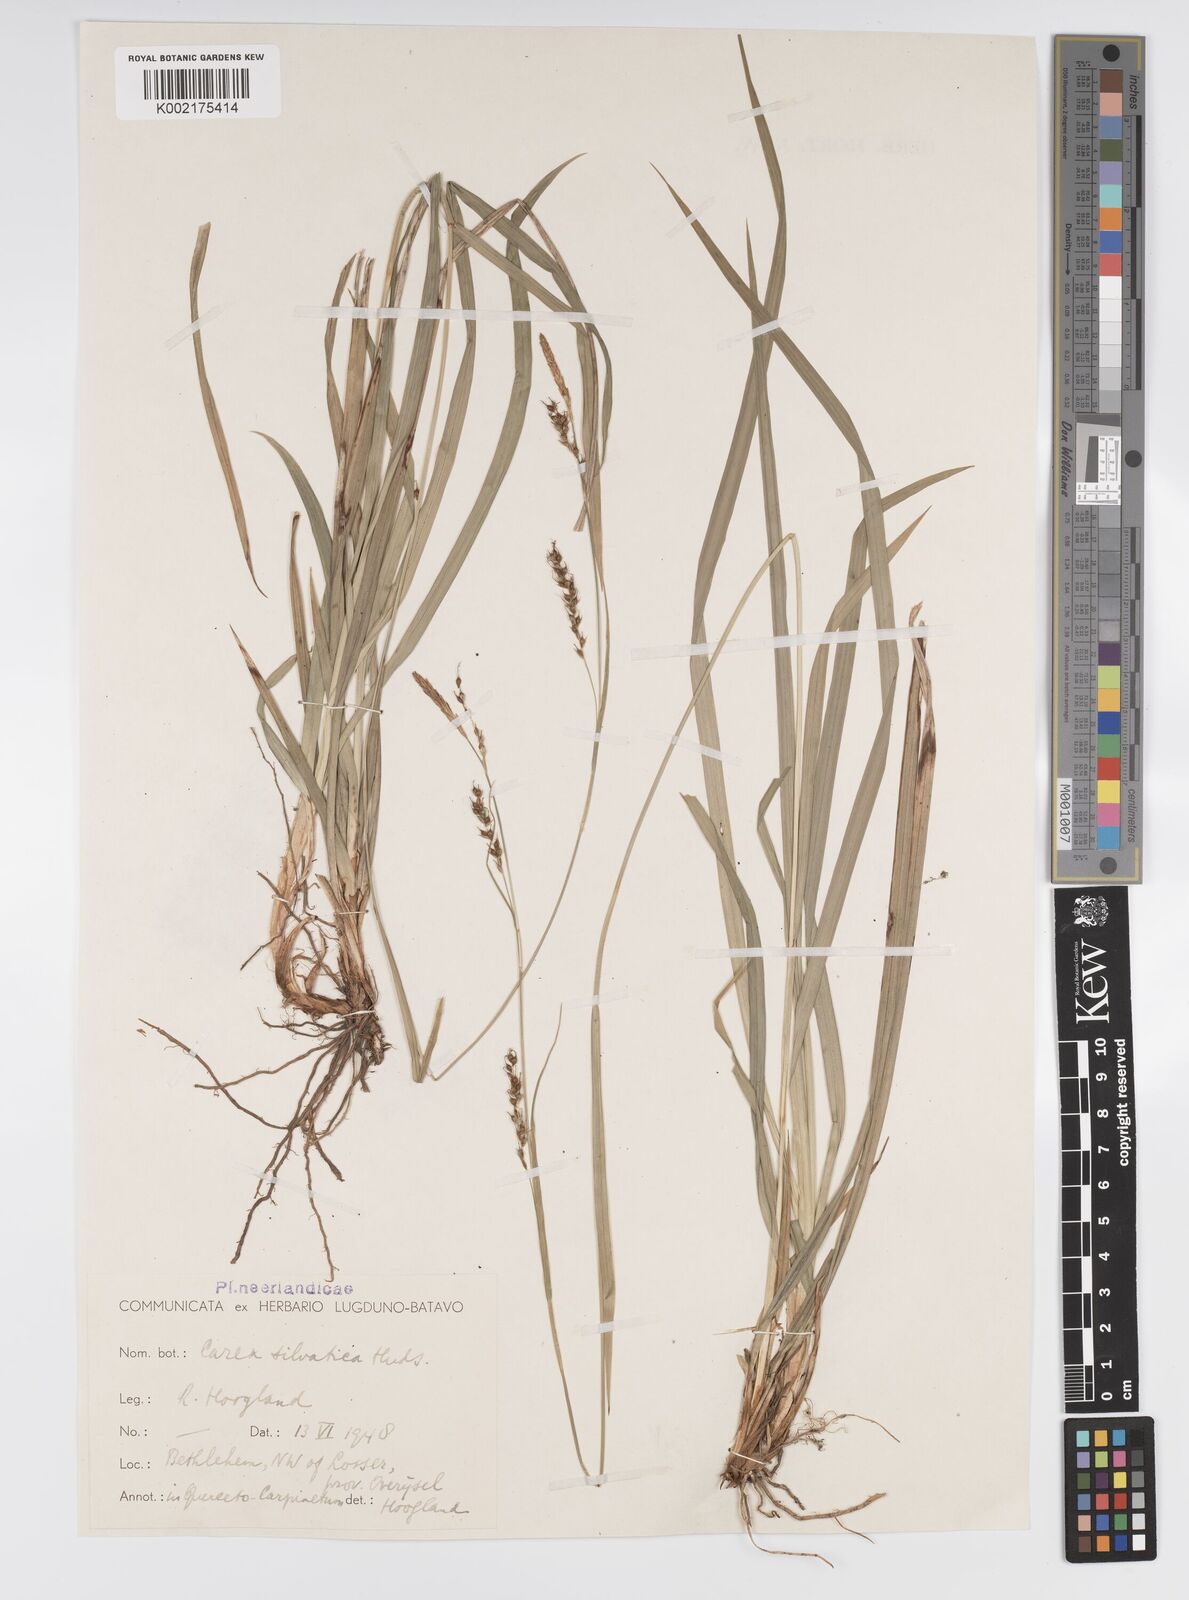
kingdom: Plantae
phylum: Tracheophyta
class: Liliopsida
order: Poales
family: Cyperaceae
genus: Carex
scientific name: Carex sylvatica
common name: Wood-sedge
